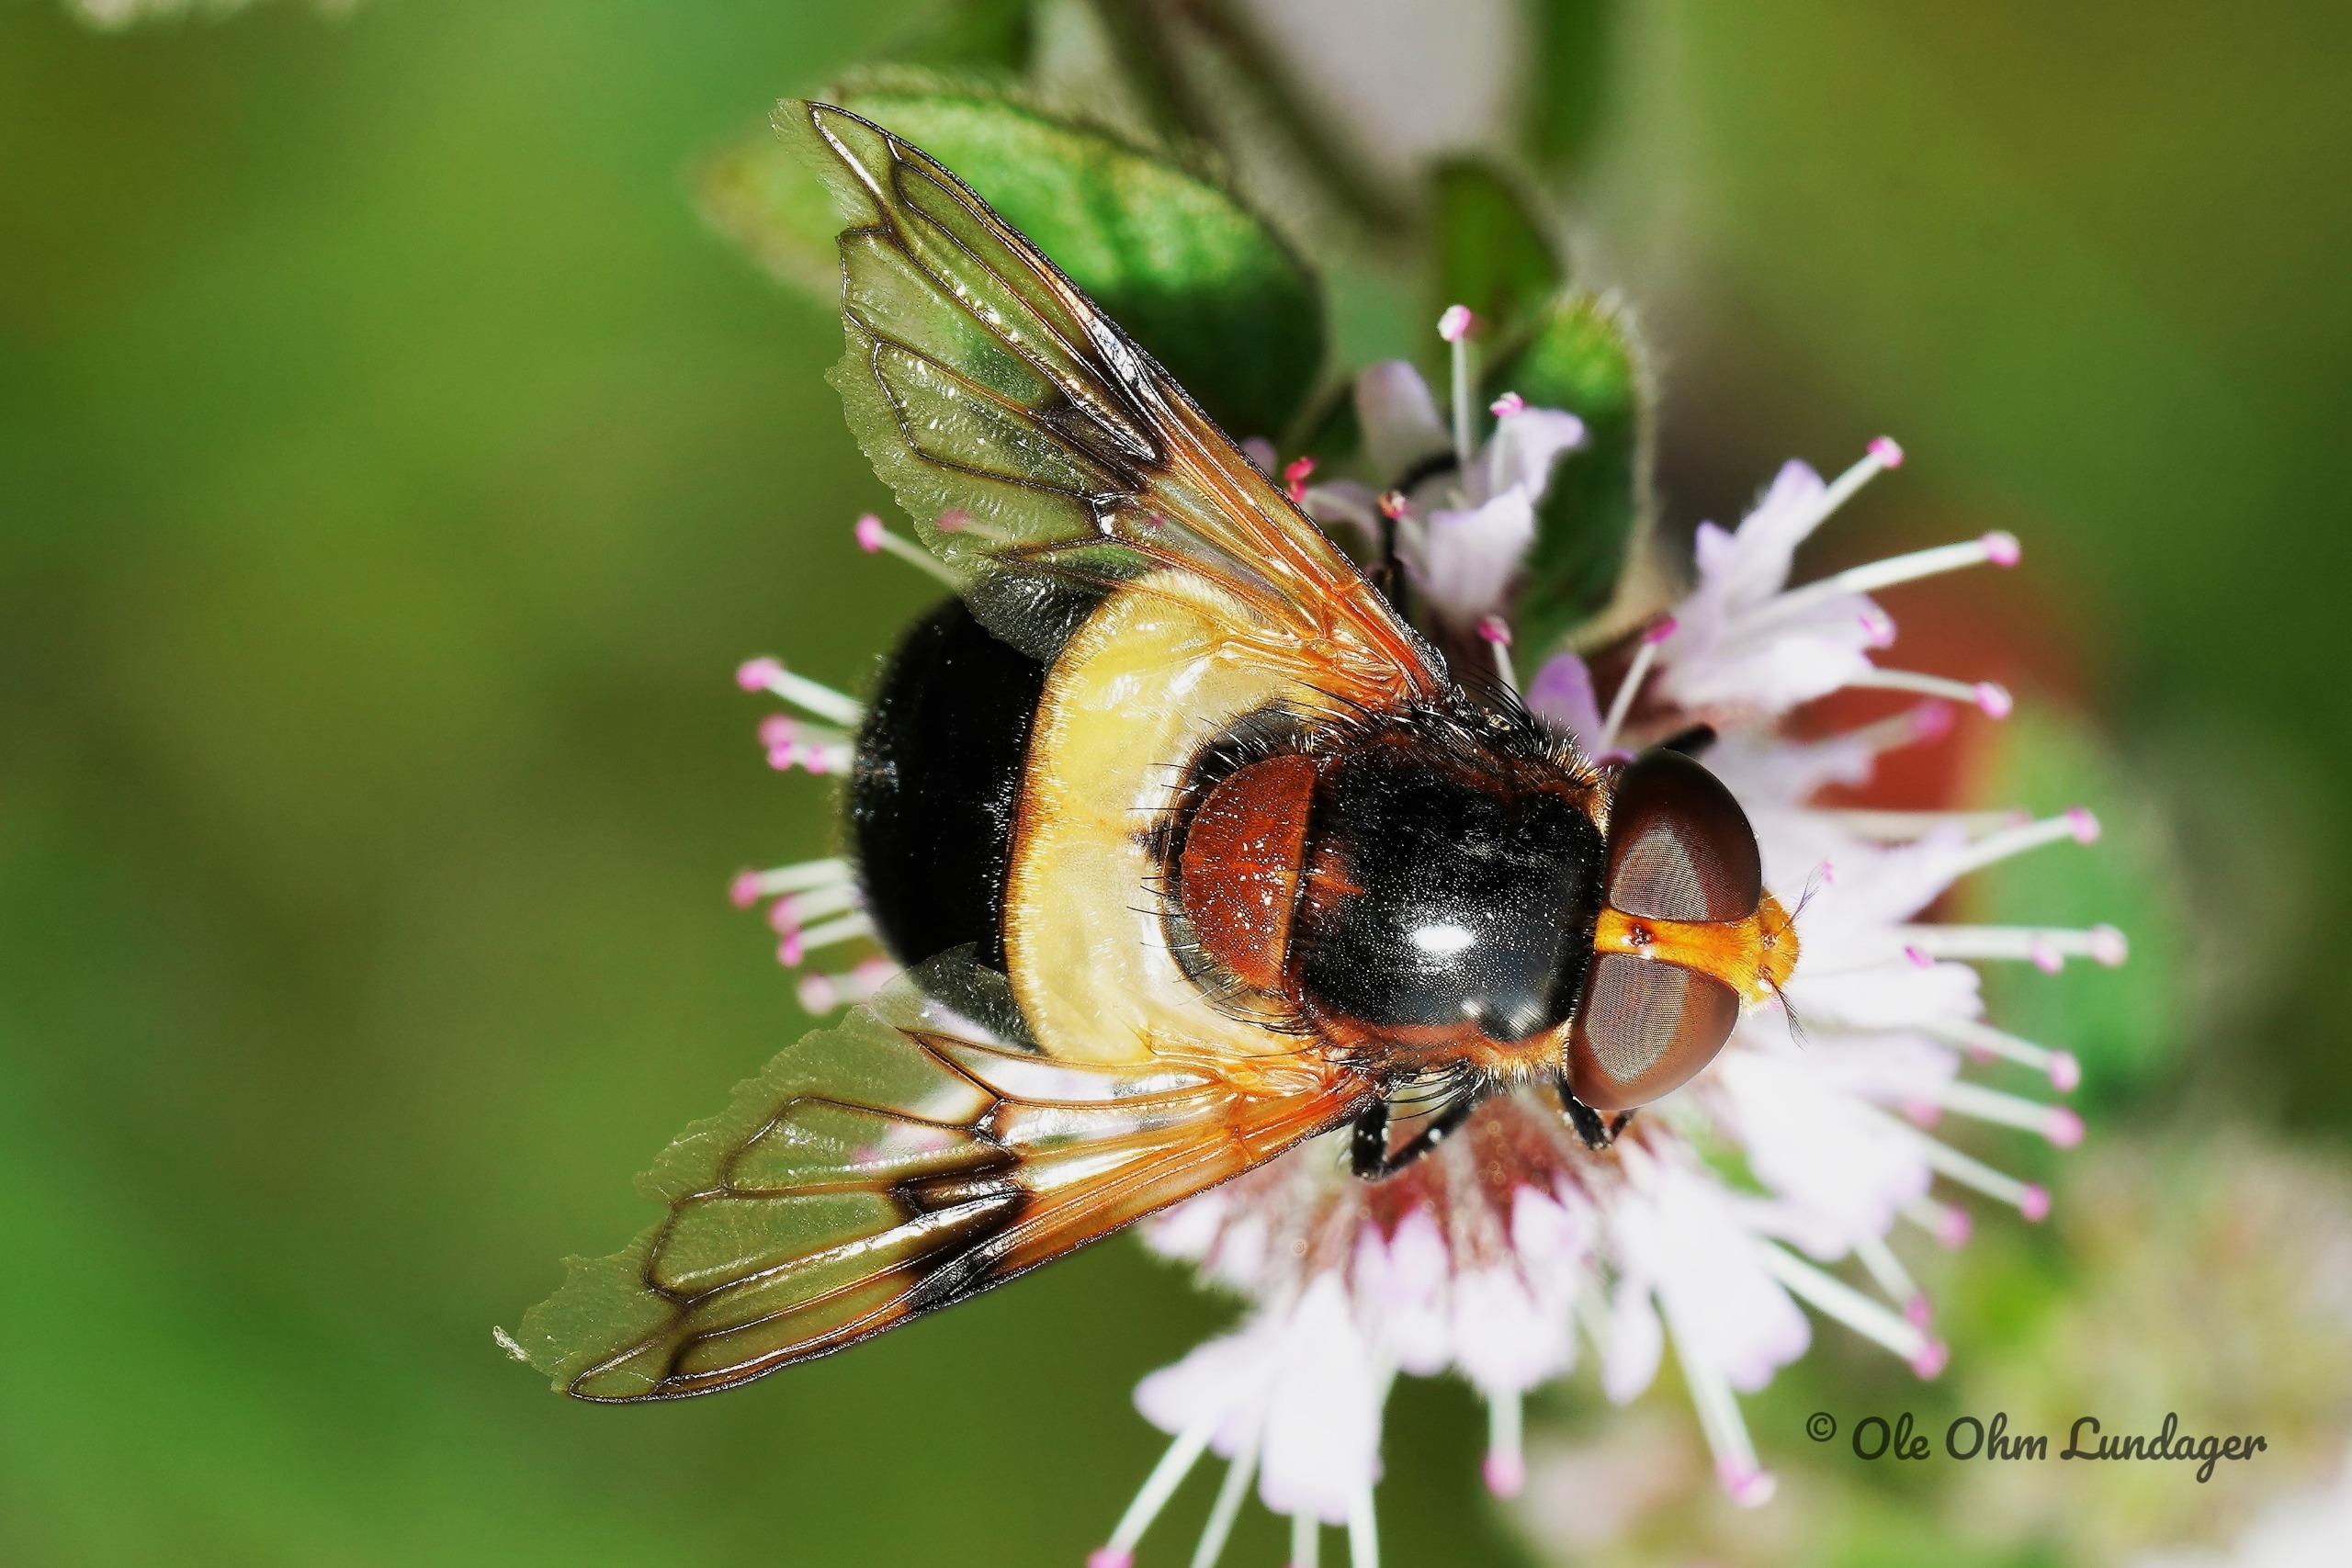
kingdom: Animalia
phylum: Arthropoda
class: Insecta
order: Diptera
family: Syrphidae
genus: Volucella
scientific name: Volucella pellucens
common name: Hvidbåndet humlesvirreflue
